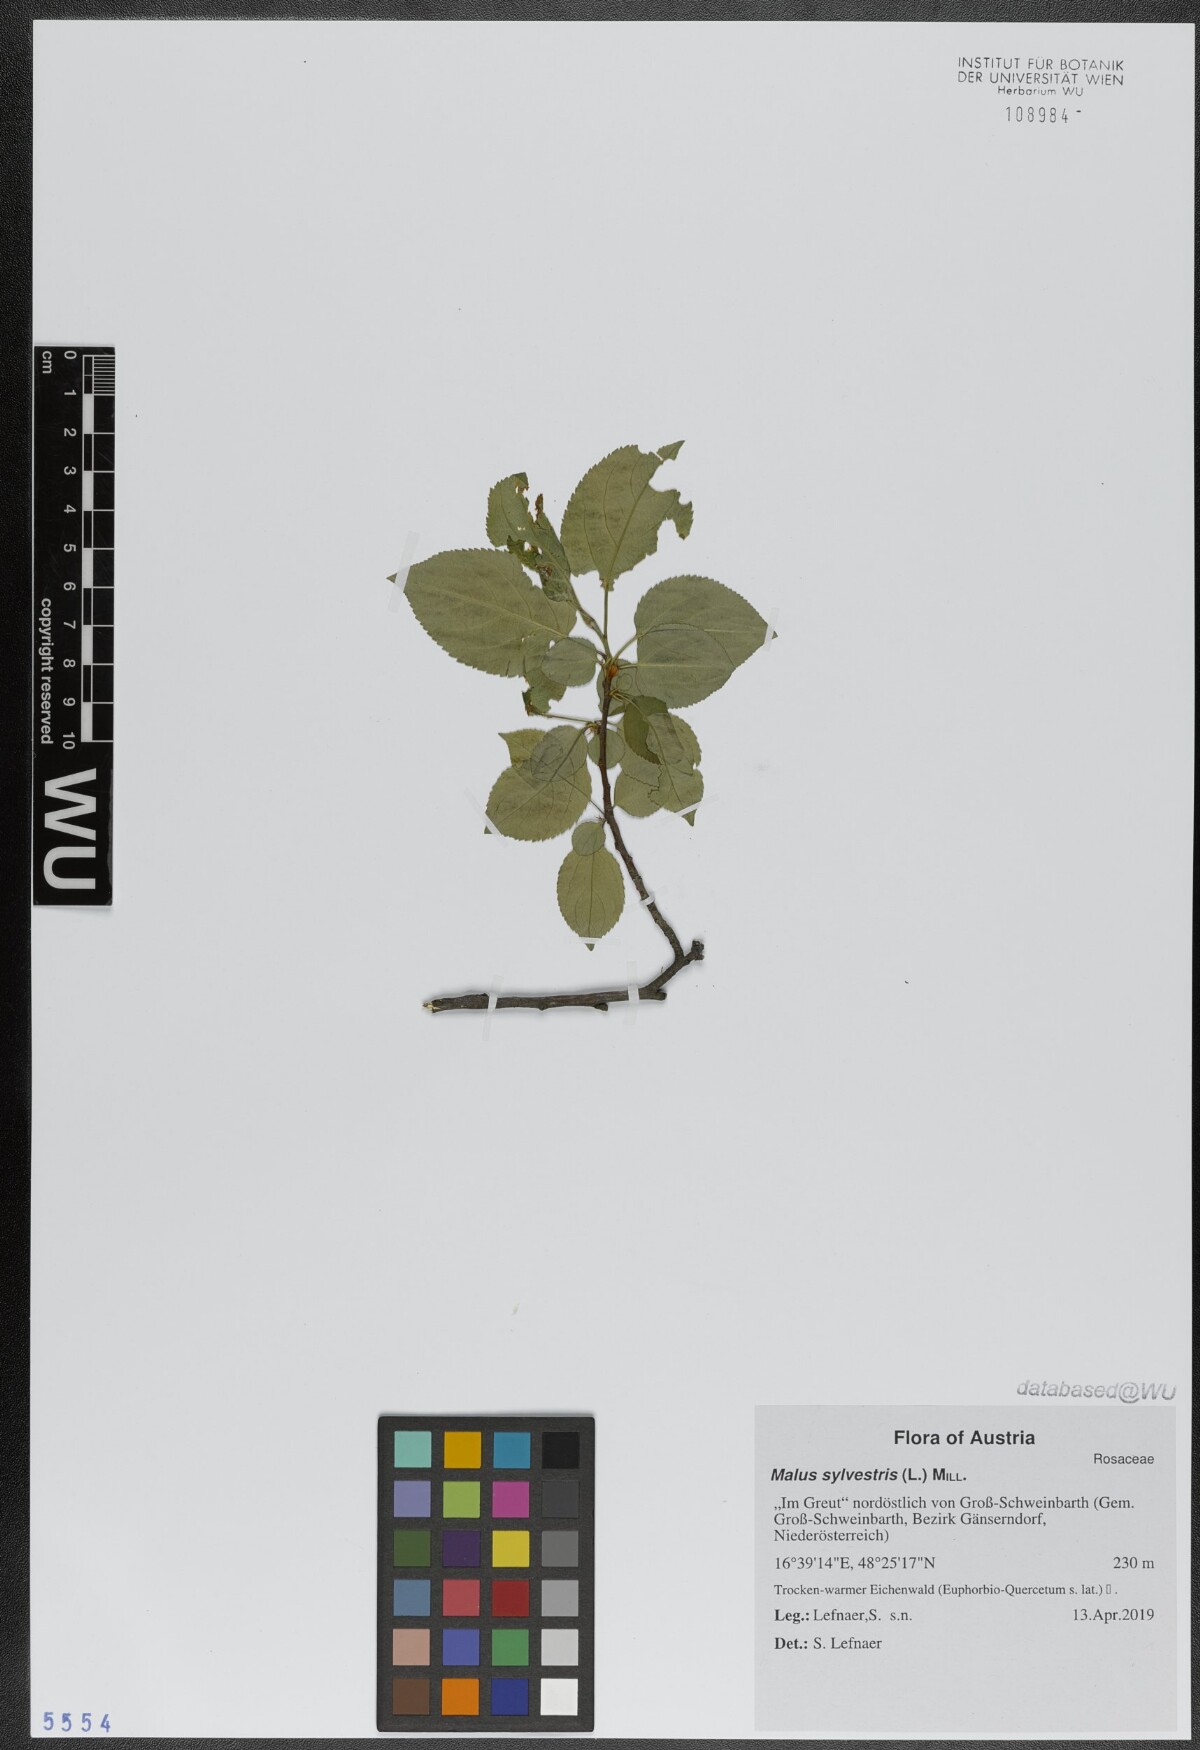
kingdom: Plantae
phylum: Tracheophyta
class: Magnoliopsida
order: Rosales
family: Rosaceae
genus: Malus
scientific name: Malus sylvestris
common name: Crab apple
